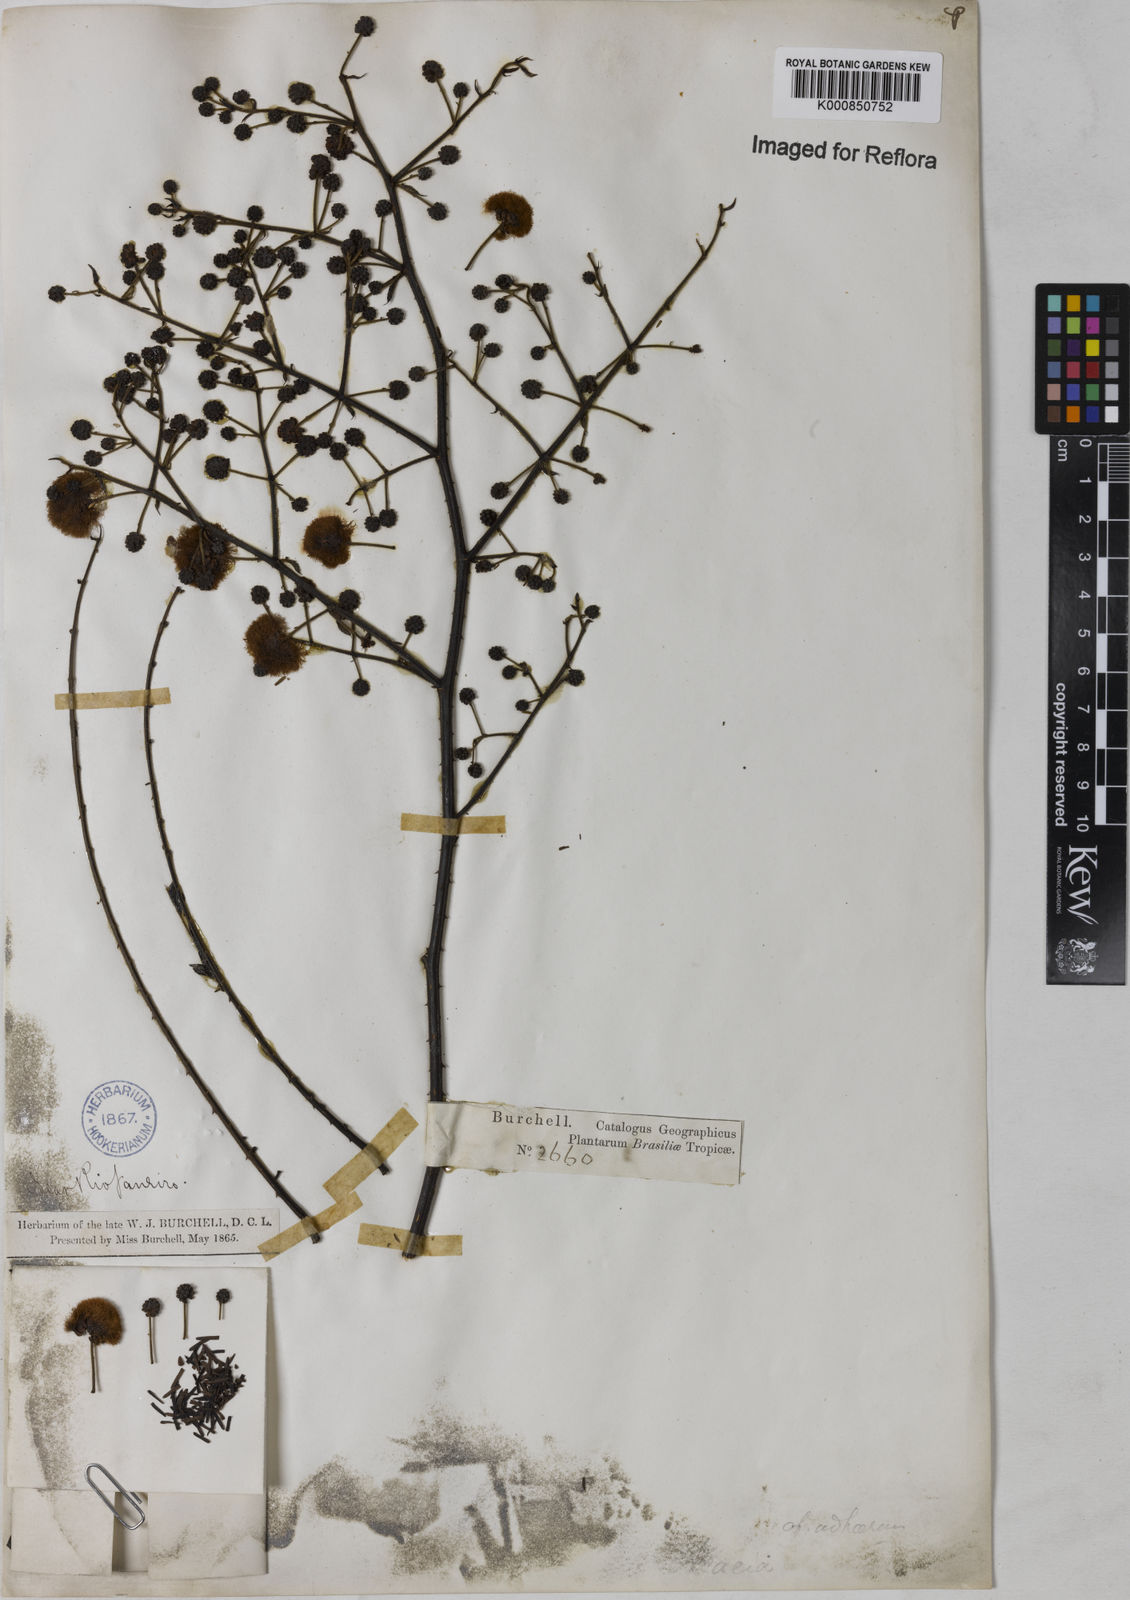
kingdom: Plantae
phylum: Tracheophyta
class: Magnoliopsida
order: Fabales
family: Fabaceae
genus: Senegalia
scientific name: Senegalia martiusiana
